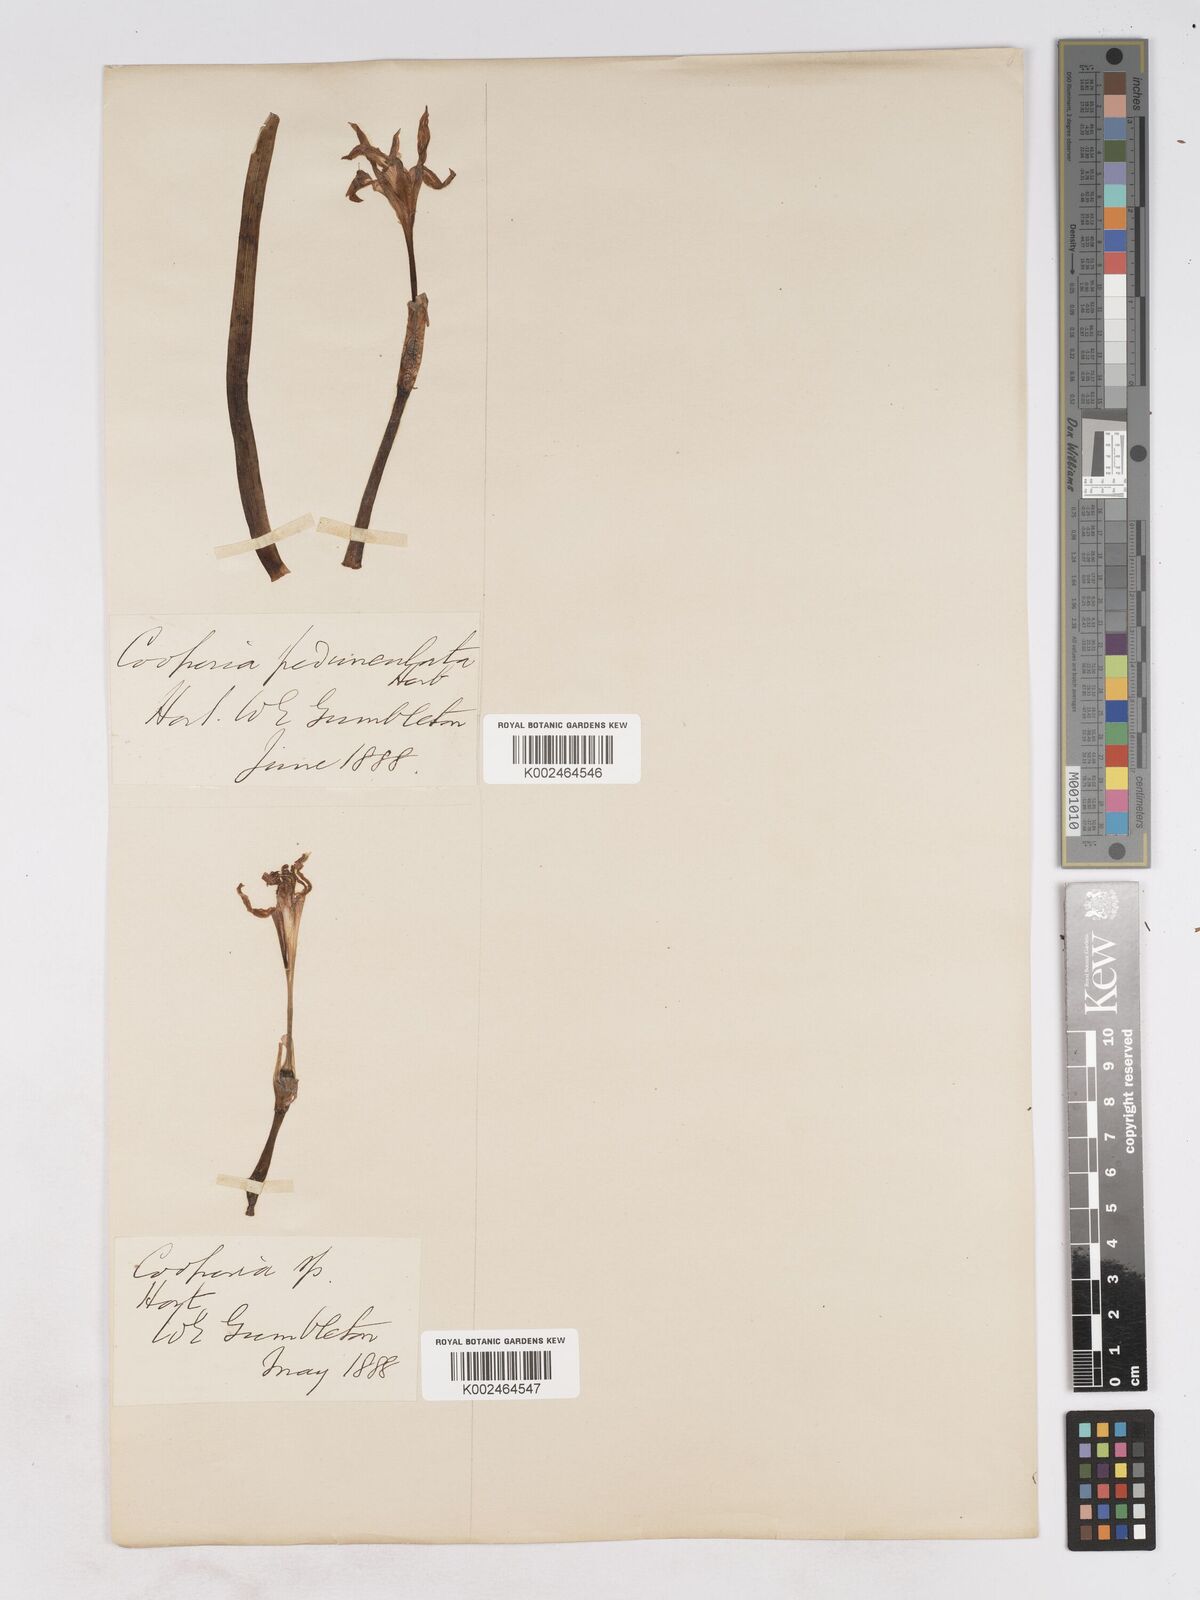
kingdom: Plantae
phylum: Tracheophyta
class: Liliopsida
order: Asparagales
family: Amaryllidaceae
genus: Zephyranthes
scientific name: Zephyranthes drummondii
